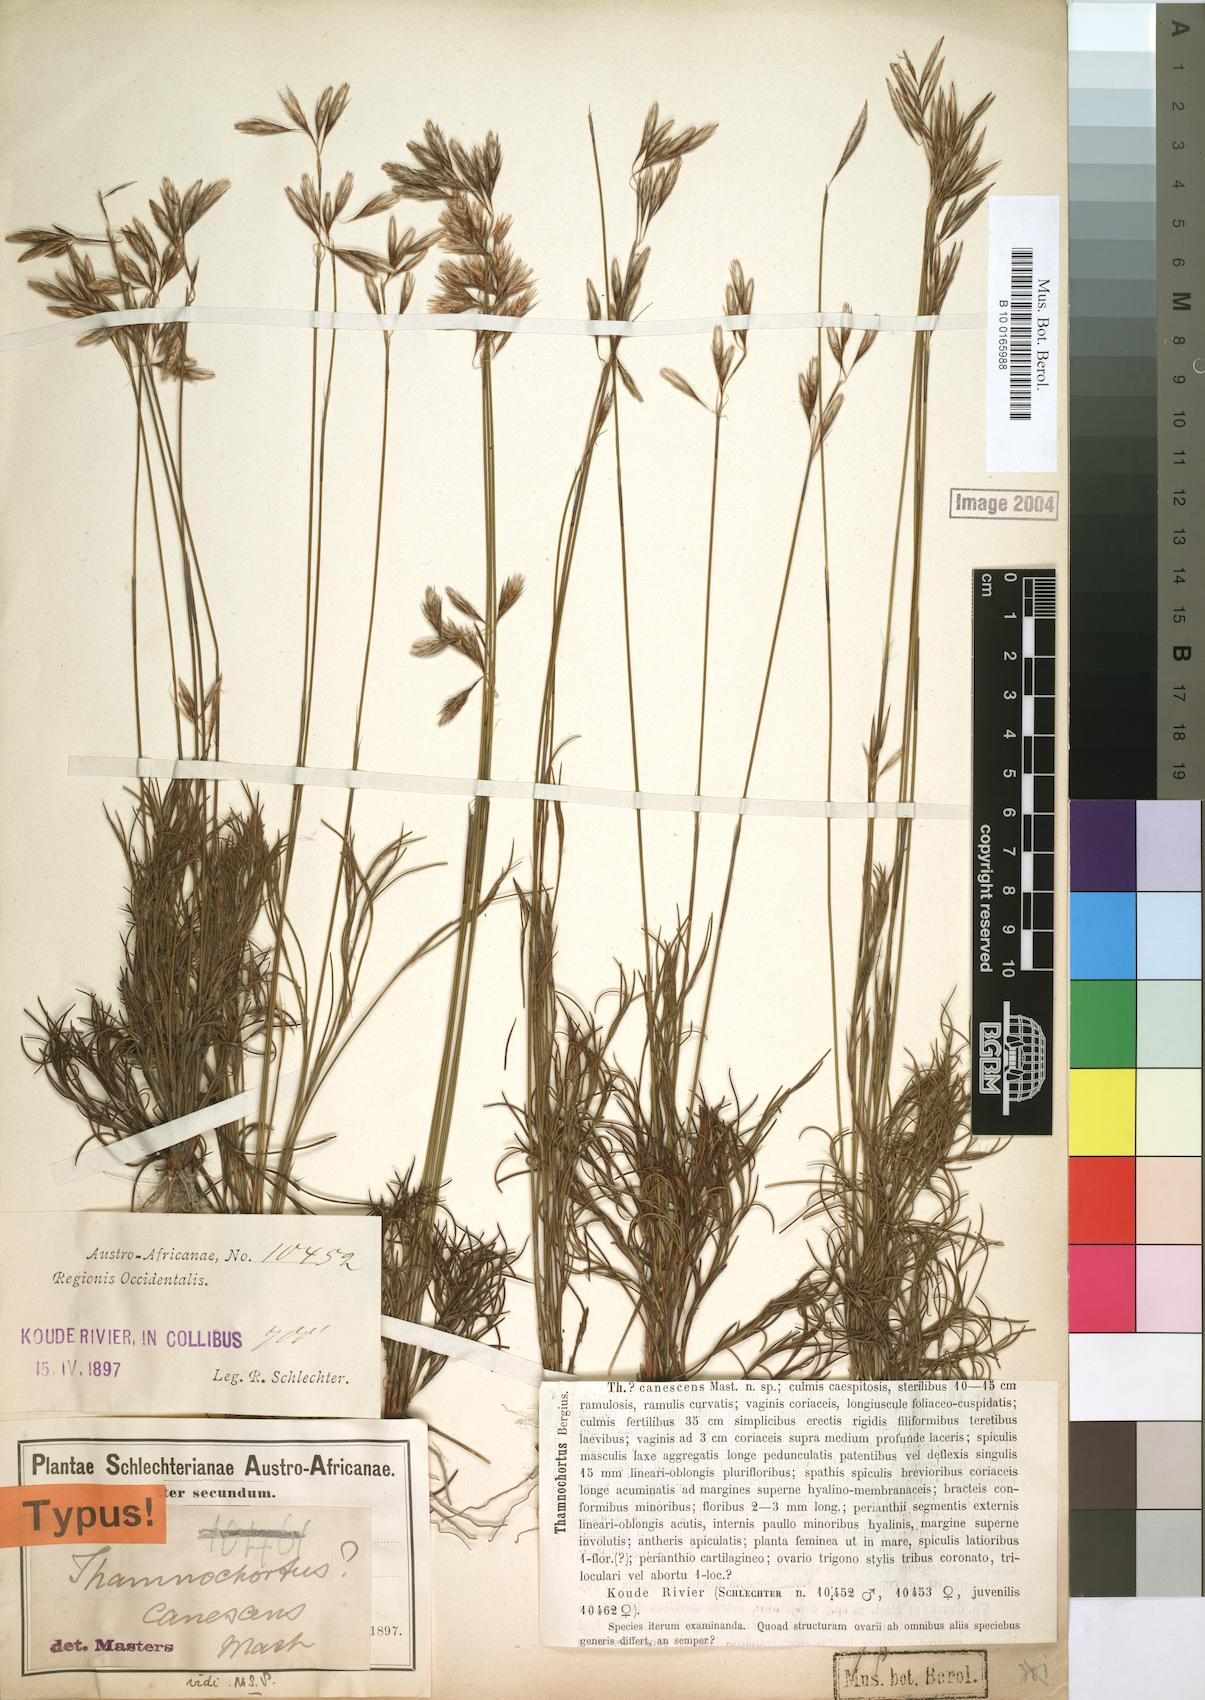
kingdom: Plantae
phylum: Tracheophyta
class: Liliopsida
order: Poales
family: Restionaceae
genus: Thamnochortus
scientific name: Thamnochortus dumosus
